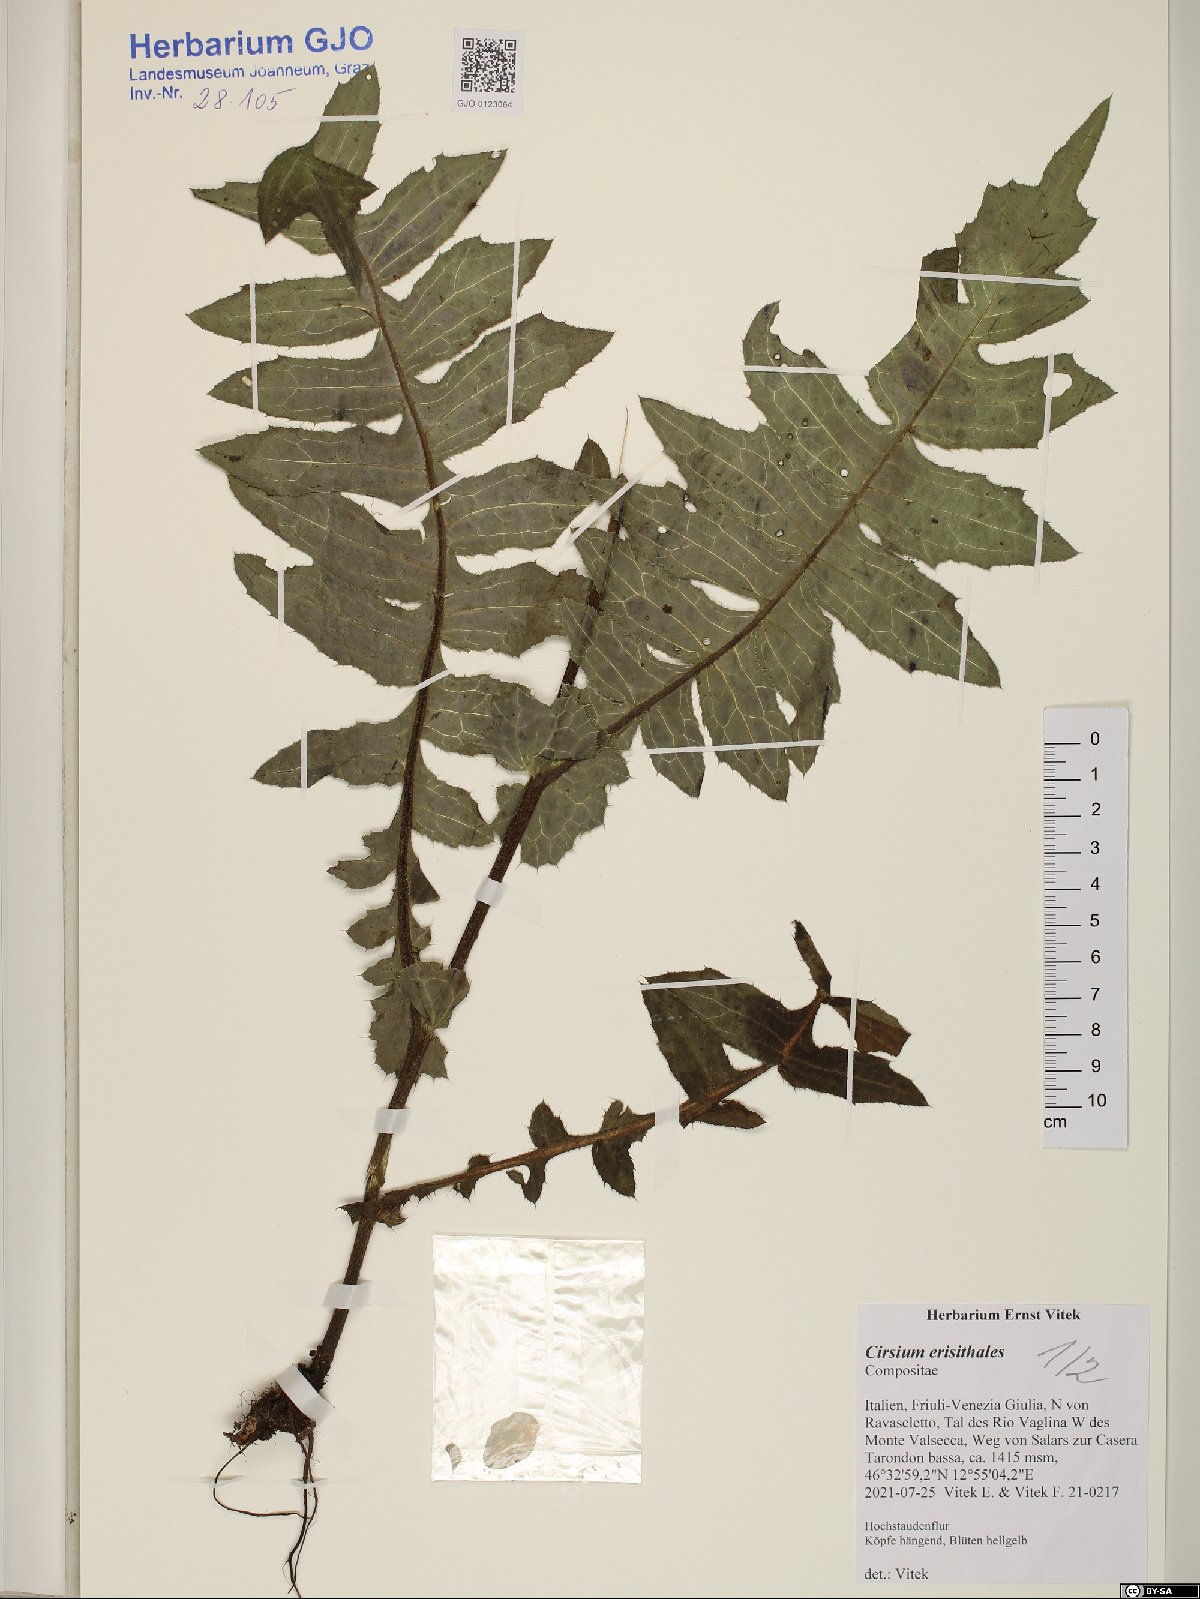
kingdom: Plantae
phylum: Tracheophyta
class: Magnoliopsida
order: Asterales
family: Asteraceae
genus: Cirsium
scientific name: Cirsium erisithales
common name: Yellow thistle
